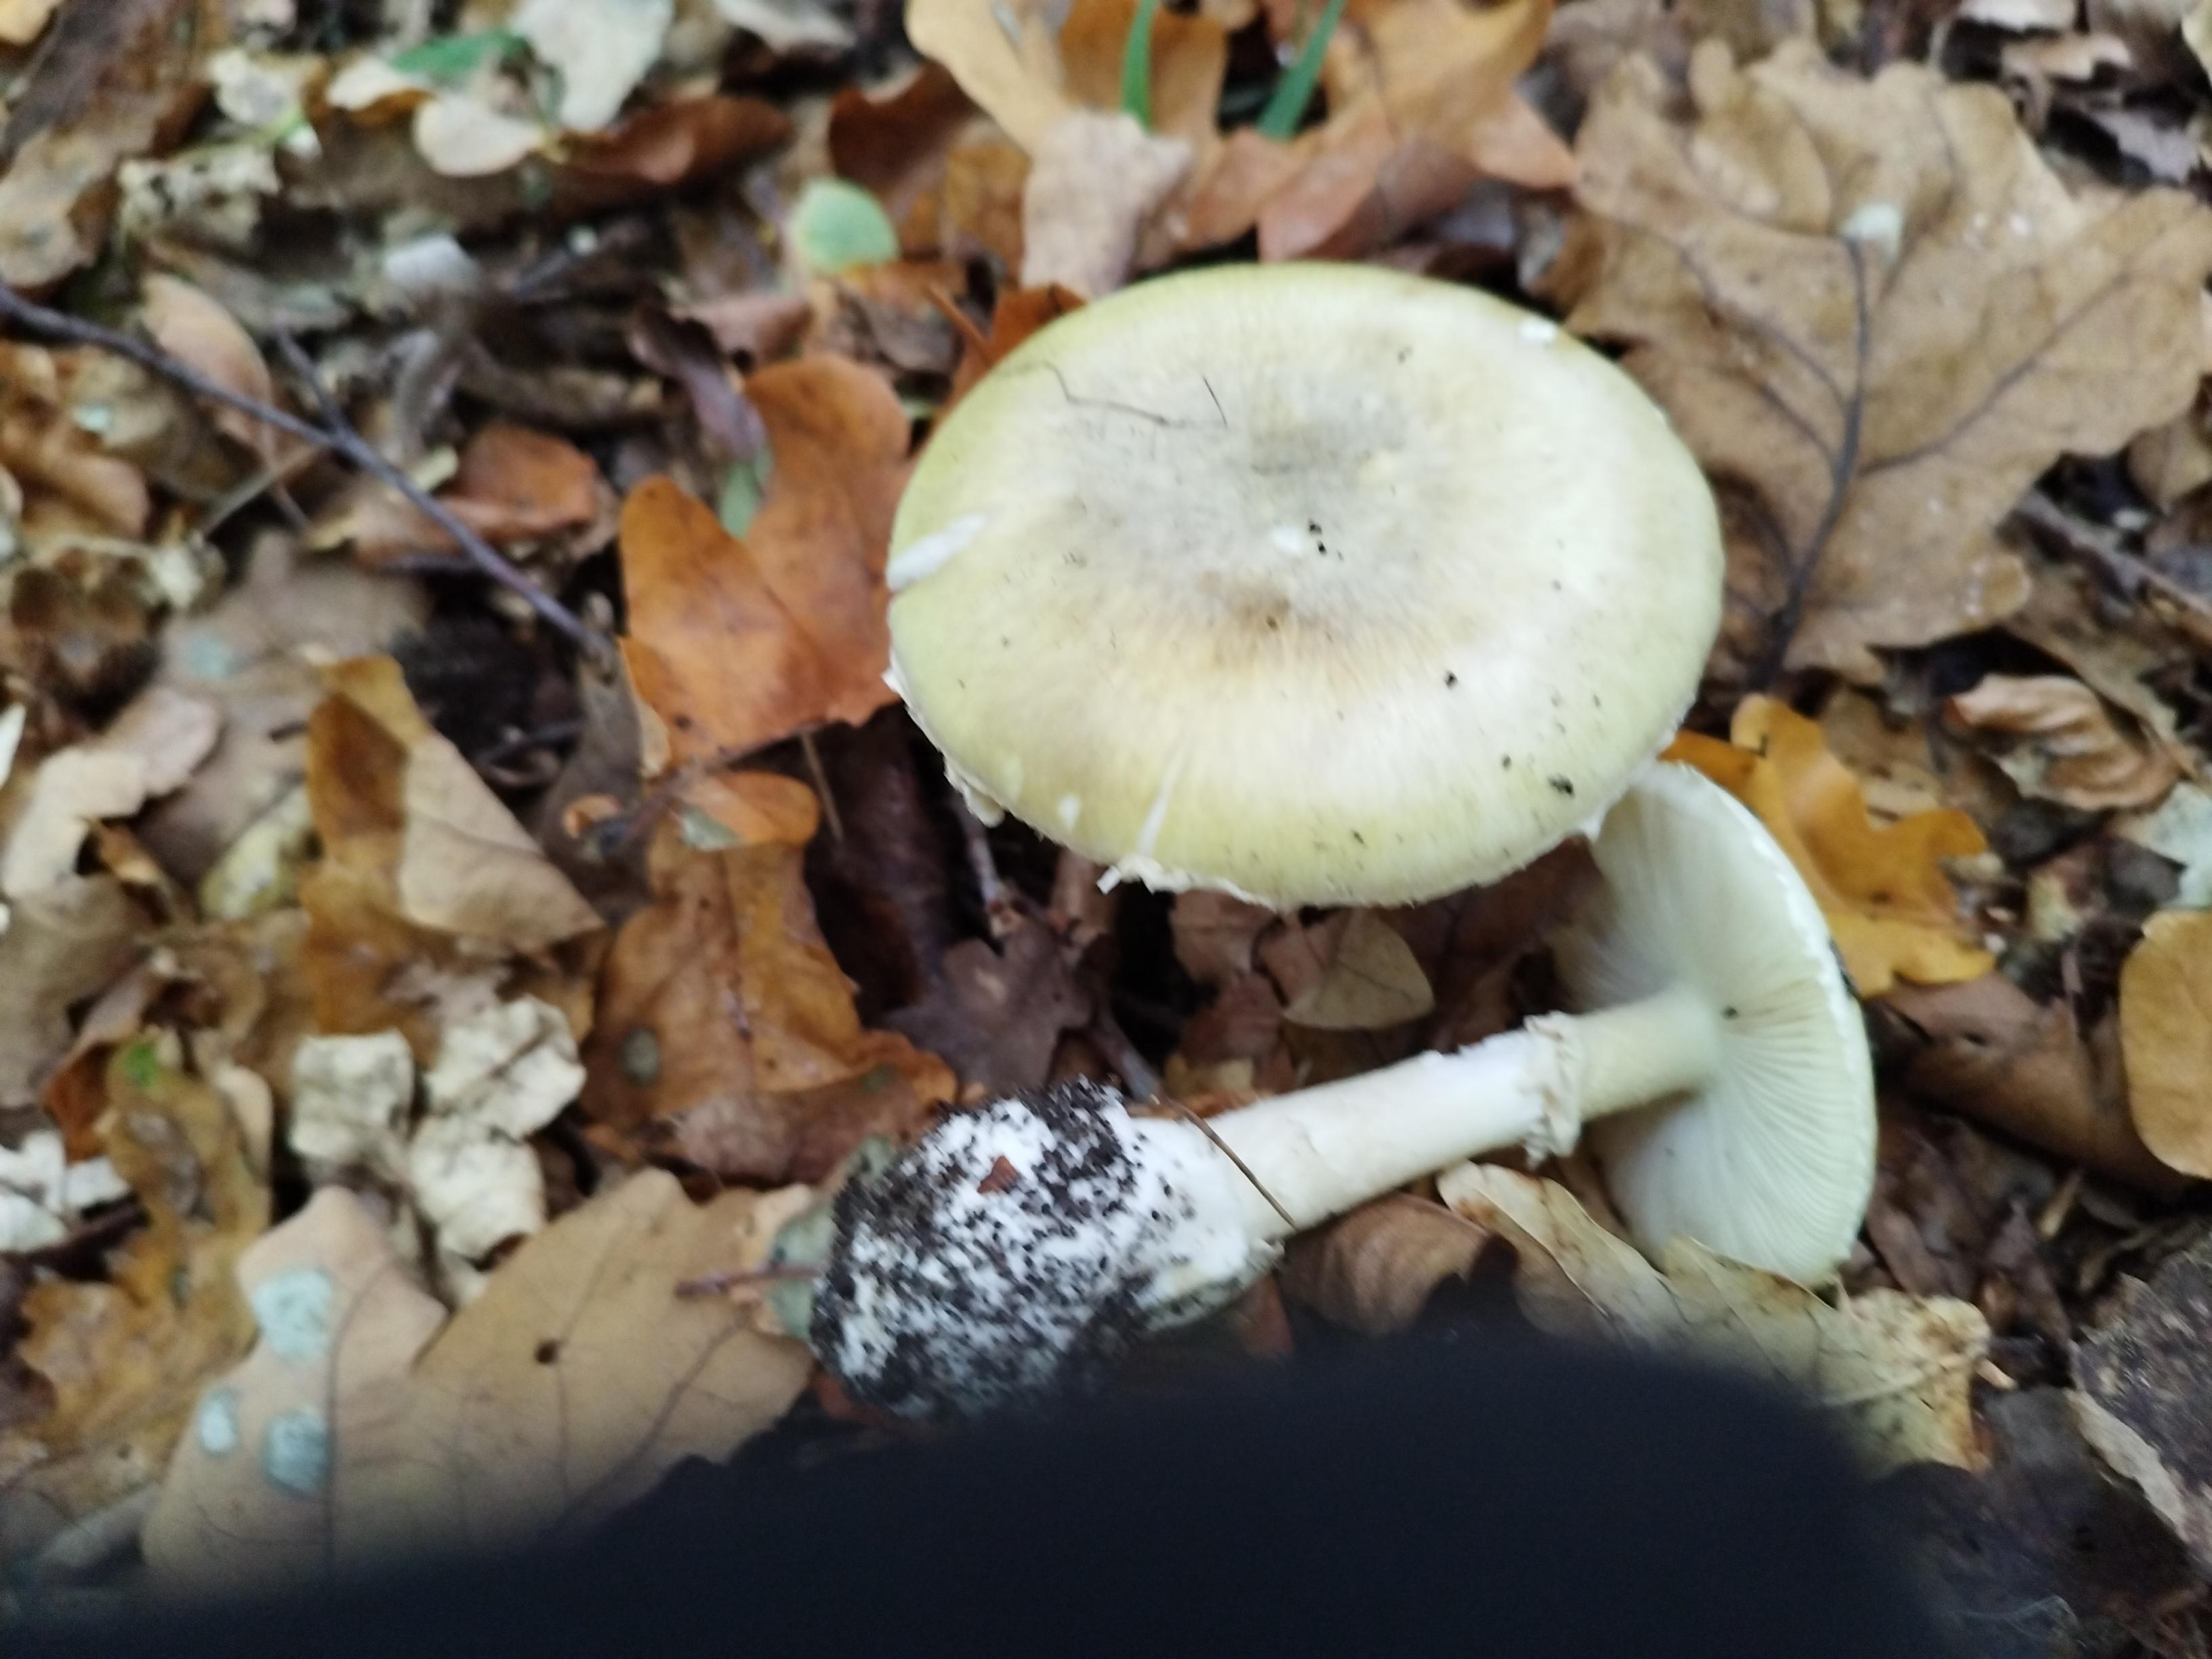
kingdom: Fungi
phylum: Basidiomycota
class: Agaricomycetes
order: Agaricales
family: Amanitaceae
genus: Amanita
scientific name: Amanita phalloides
